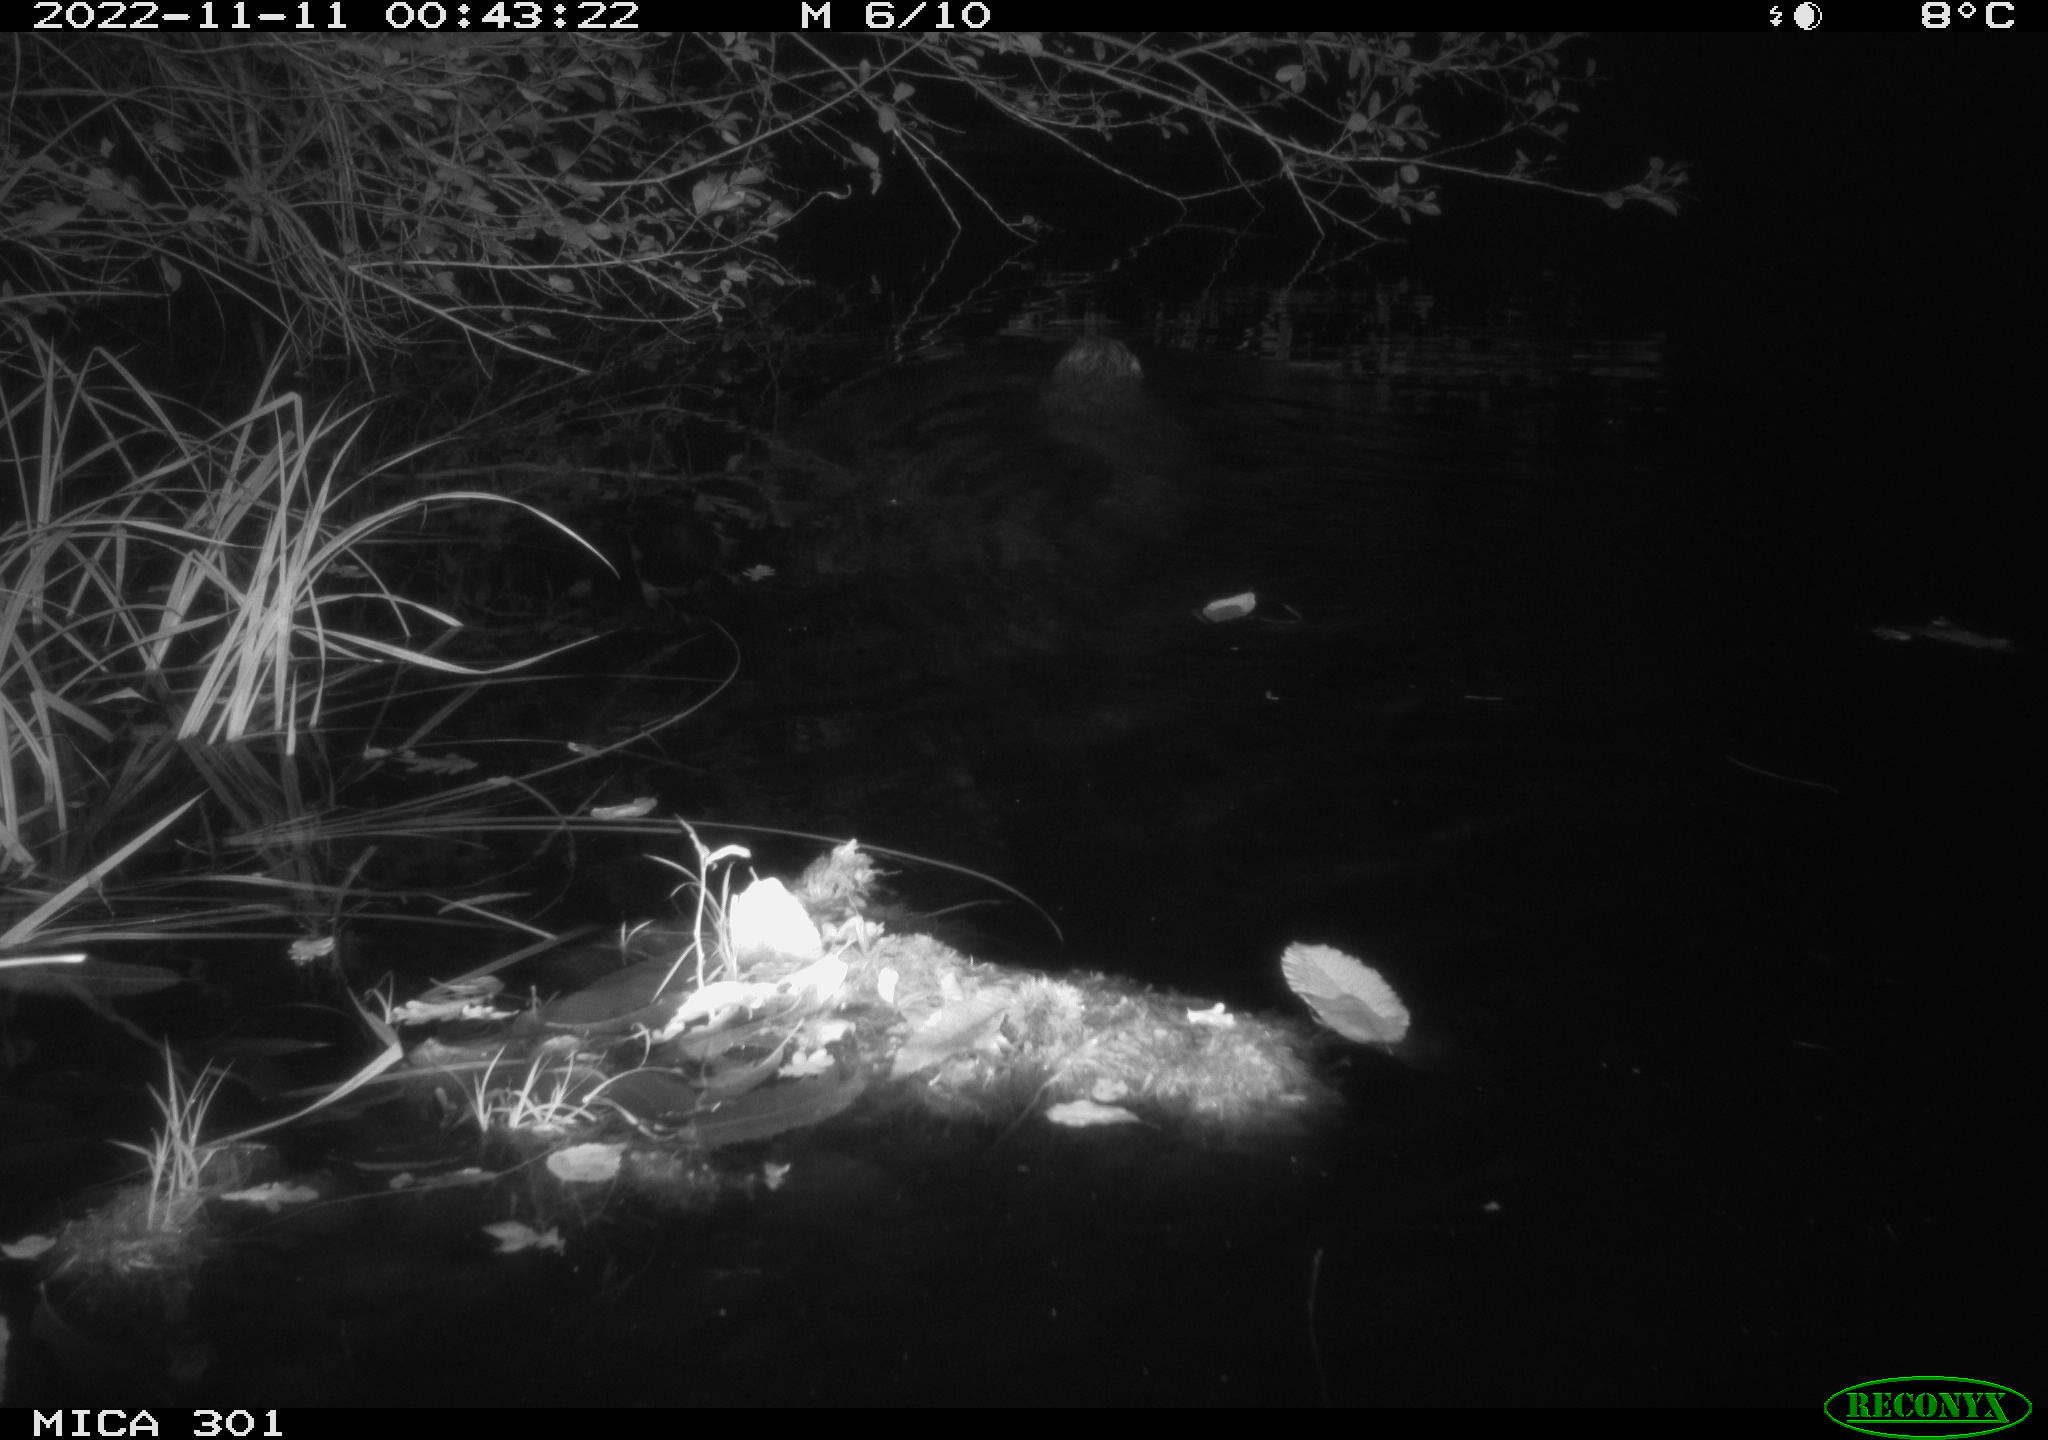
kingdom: Animalia
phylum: Chordata
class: Mammalia
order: Rodentia
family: Castoridae
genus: Castor
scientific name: Castor fiber
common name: Eurasian beaver
